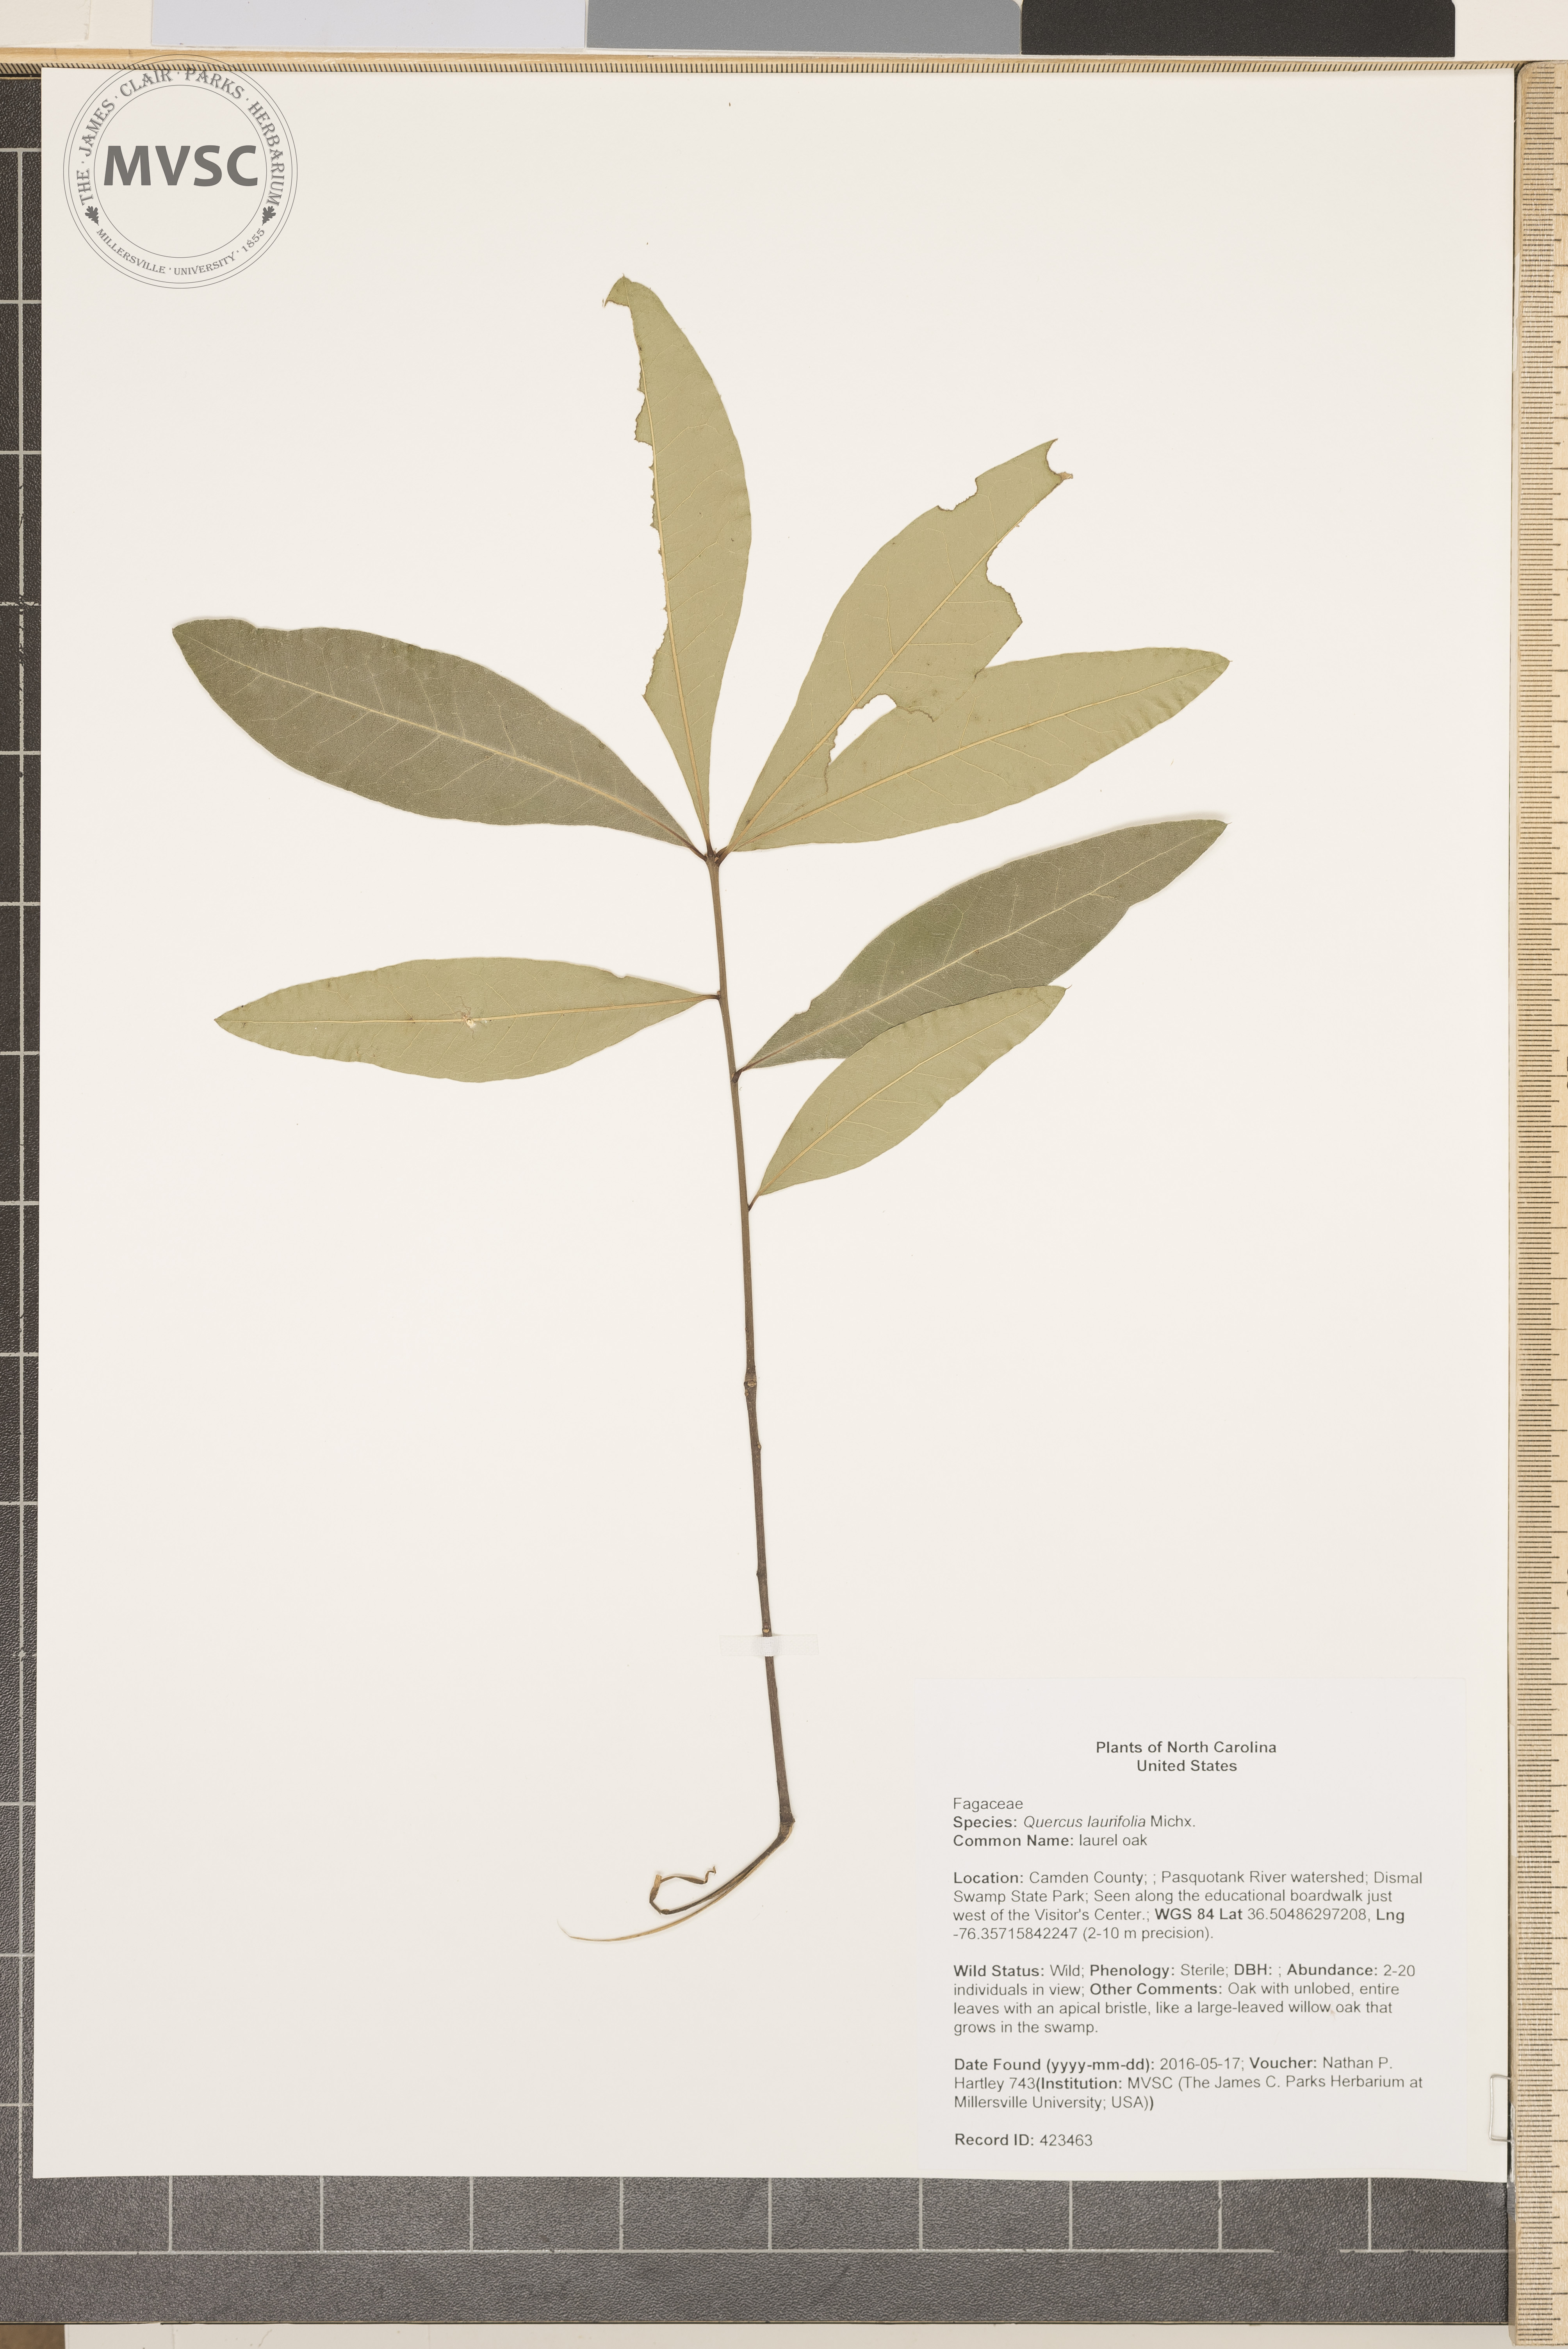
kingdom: Plantae
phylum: Tracheophyta
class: Magnoliopsida
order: Fagales
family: Fagaceae
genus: Quercus
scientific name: Quercus laurifolia
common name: laurel oak
